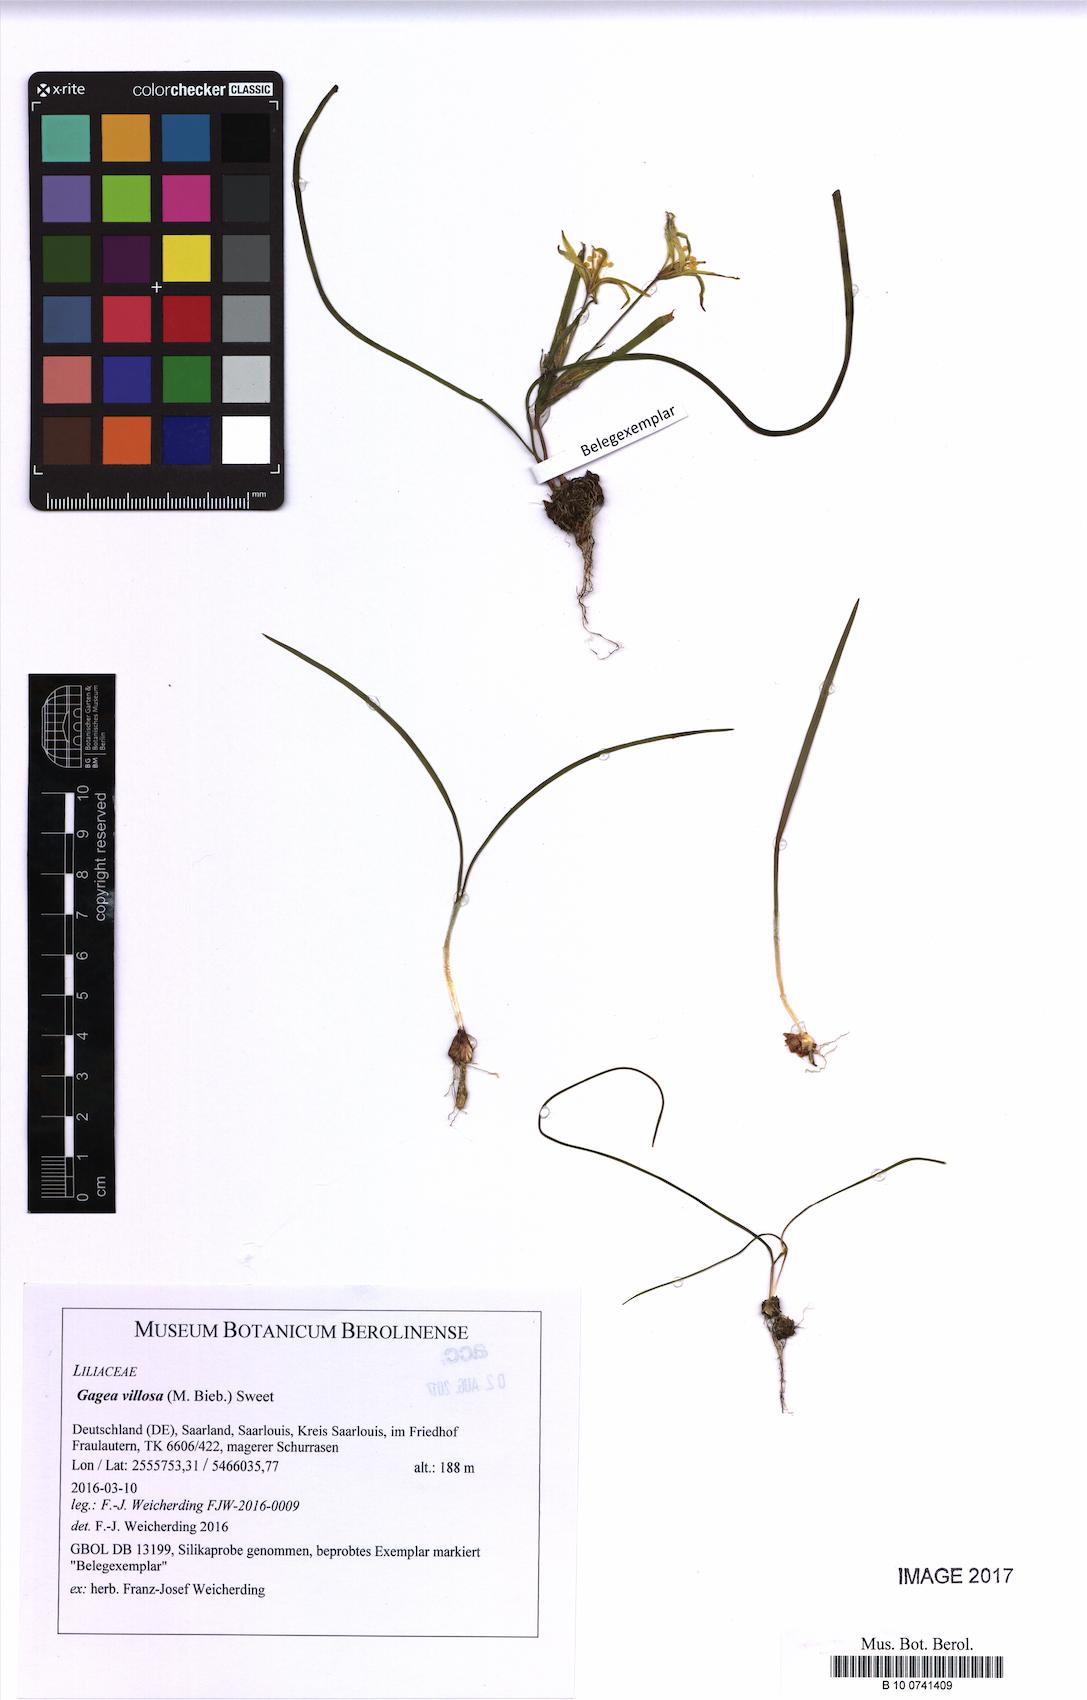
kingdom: Plantae
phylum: Tracheophyta
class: Liliopsida
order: Liliales
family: Liliaceae
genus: Gagea
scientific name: Gagea villosa
